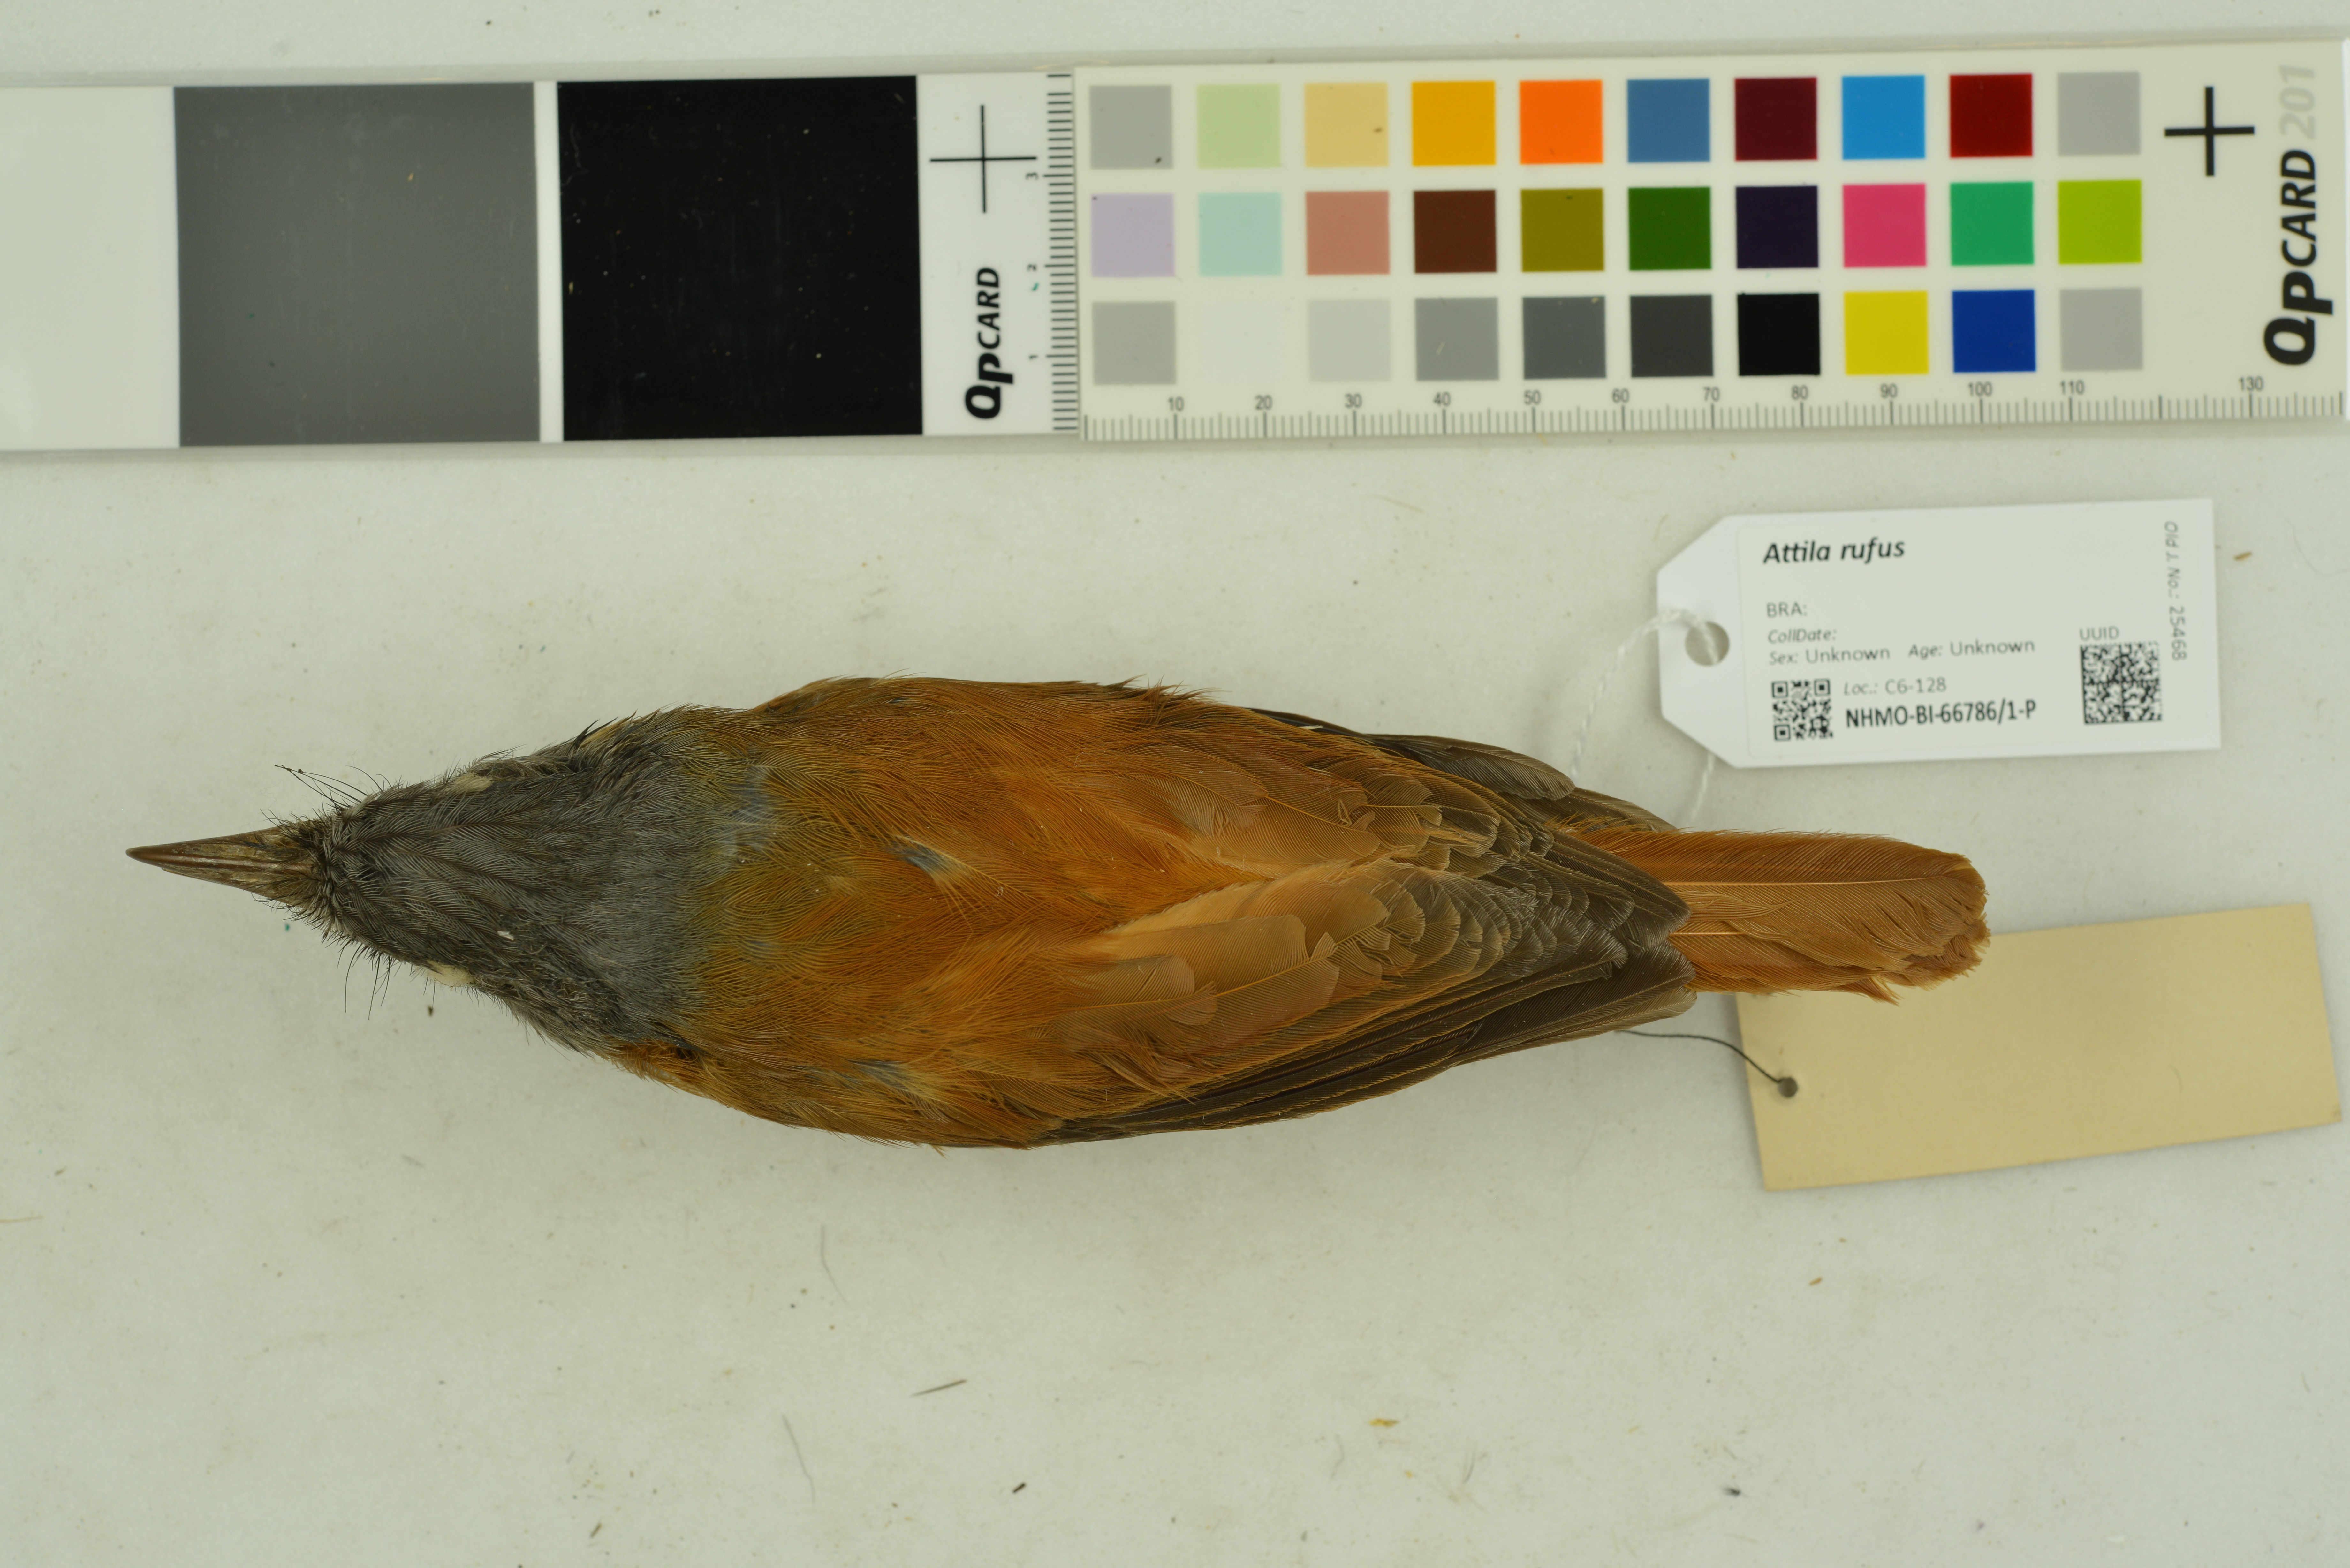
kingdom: Animalia
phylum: Chordata
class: Aves
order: Passeriformes
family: Tyrannidae
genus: Attila
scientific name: Attila rufus
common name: Grey-hooded attila
